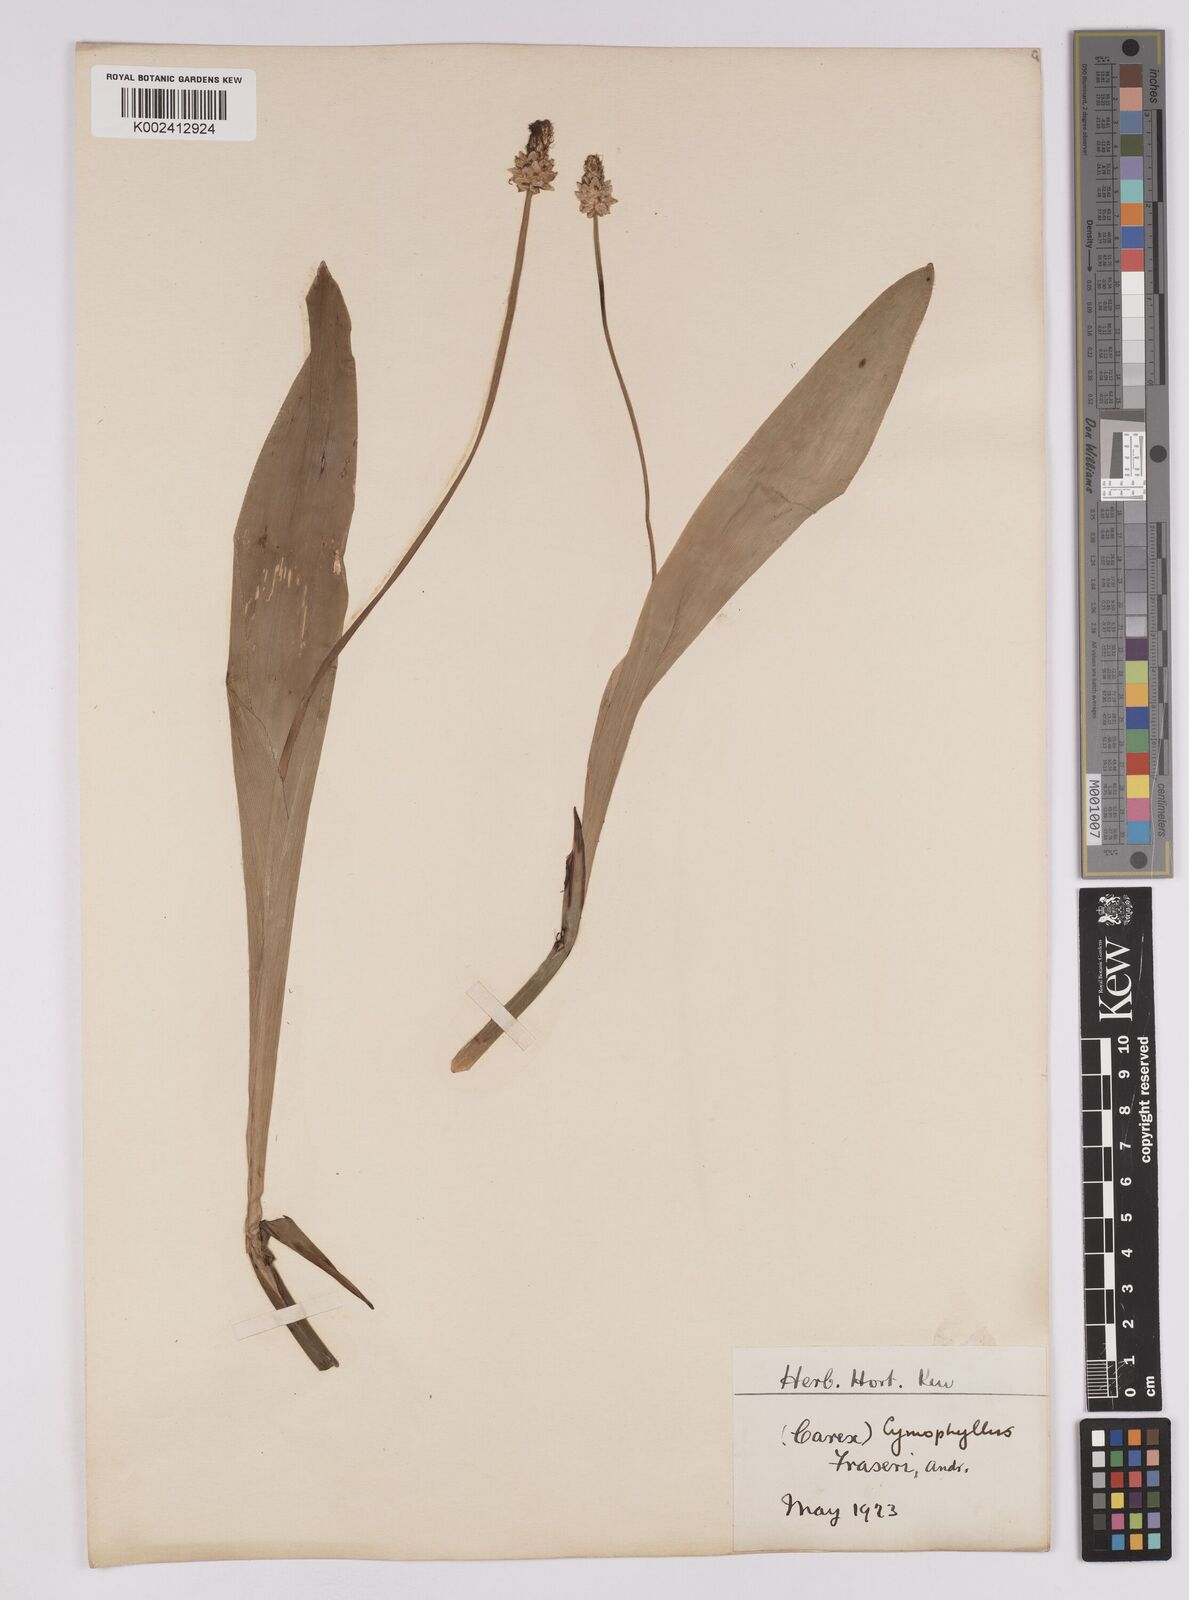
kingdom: Plantae
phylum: Tracheophyta
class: Liliopsida
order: Poales
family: Cyperaceae
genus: Carex
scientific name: Carex fraseriana
